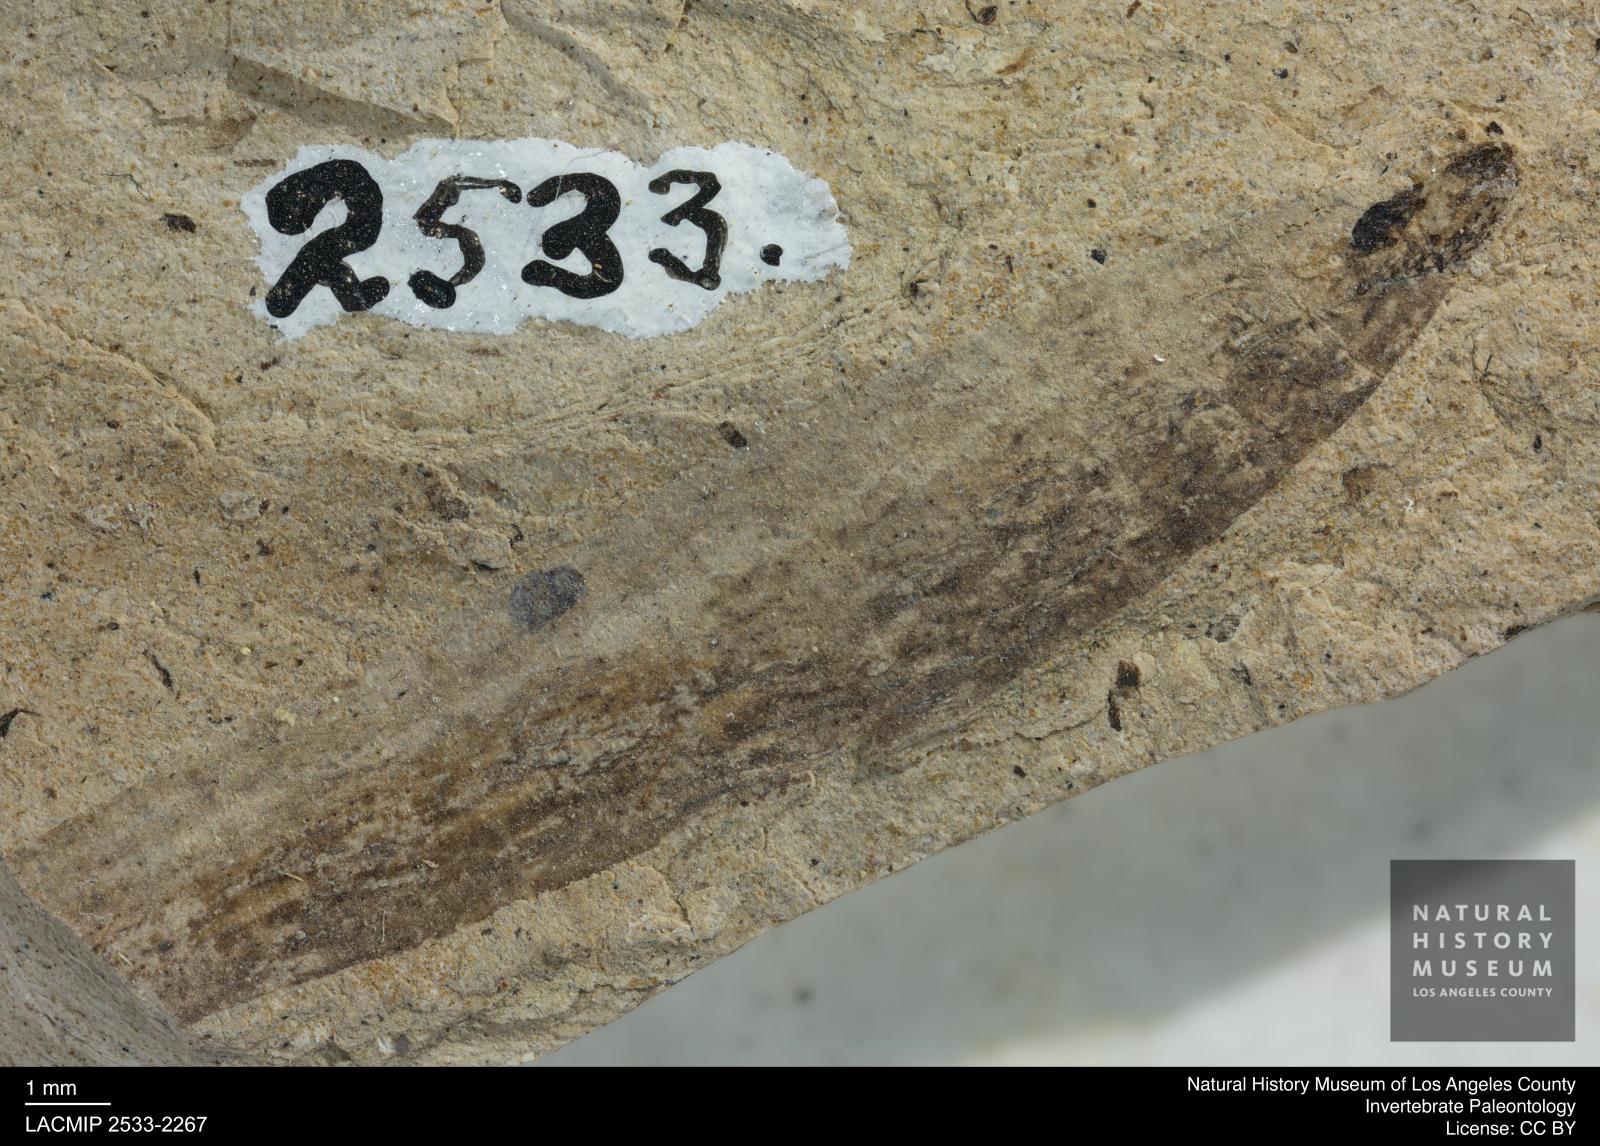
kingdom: Animalia
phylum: Arthropoda
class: Insecta
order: Diptera
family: Stratiomyidae
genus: Odontomyia
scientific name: Odontomyia
